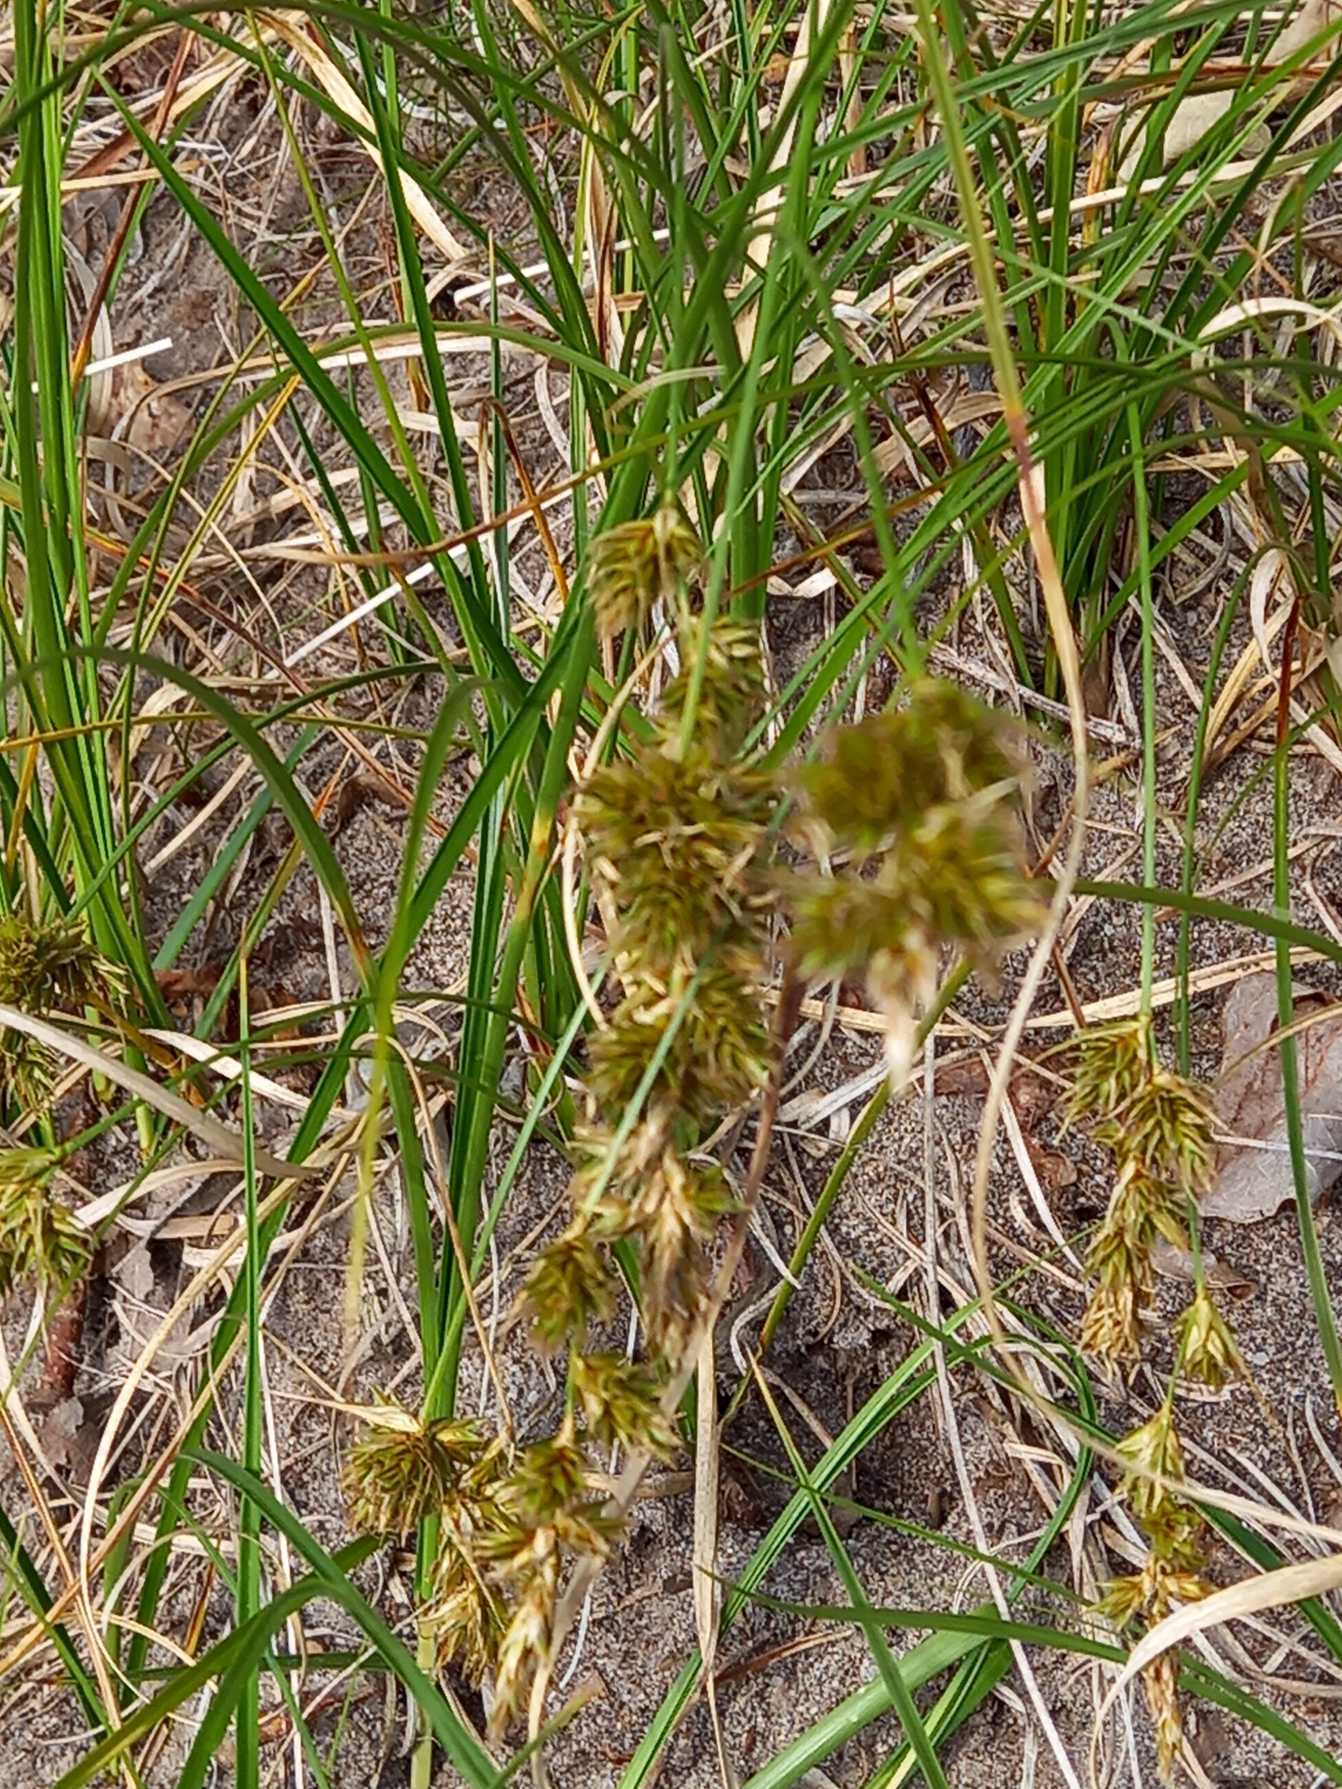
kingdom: Plantae
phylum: Tracheophyta
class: Liliopsida
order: Poales
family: Cyperaceae
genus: Carex
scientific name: Carex arenaria
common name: Sand-star
